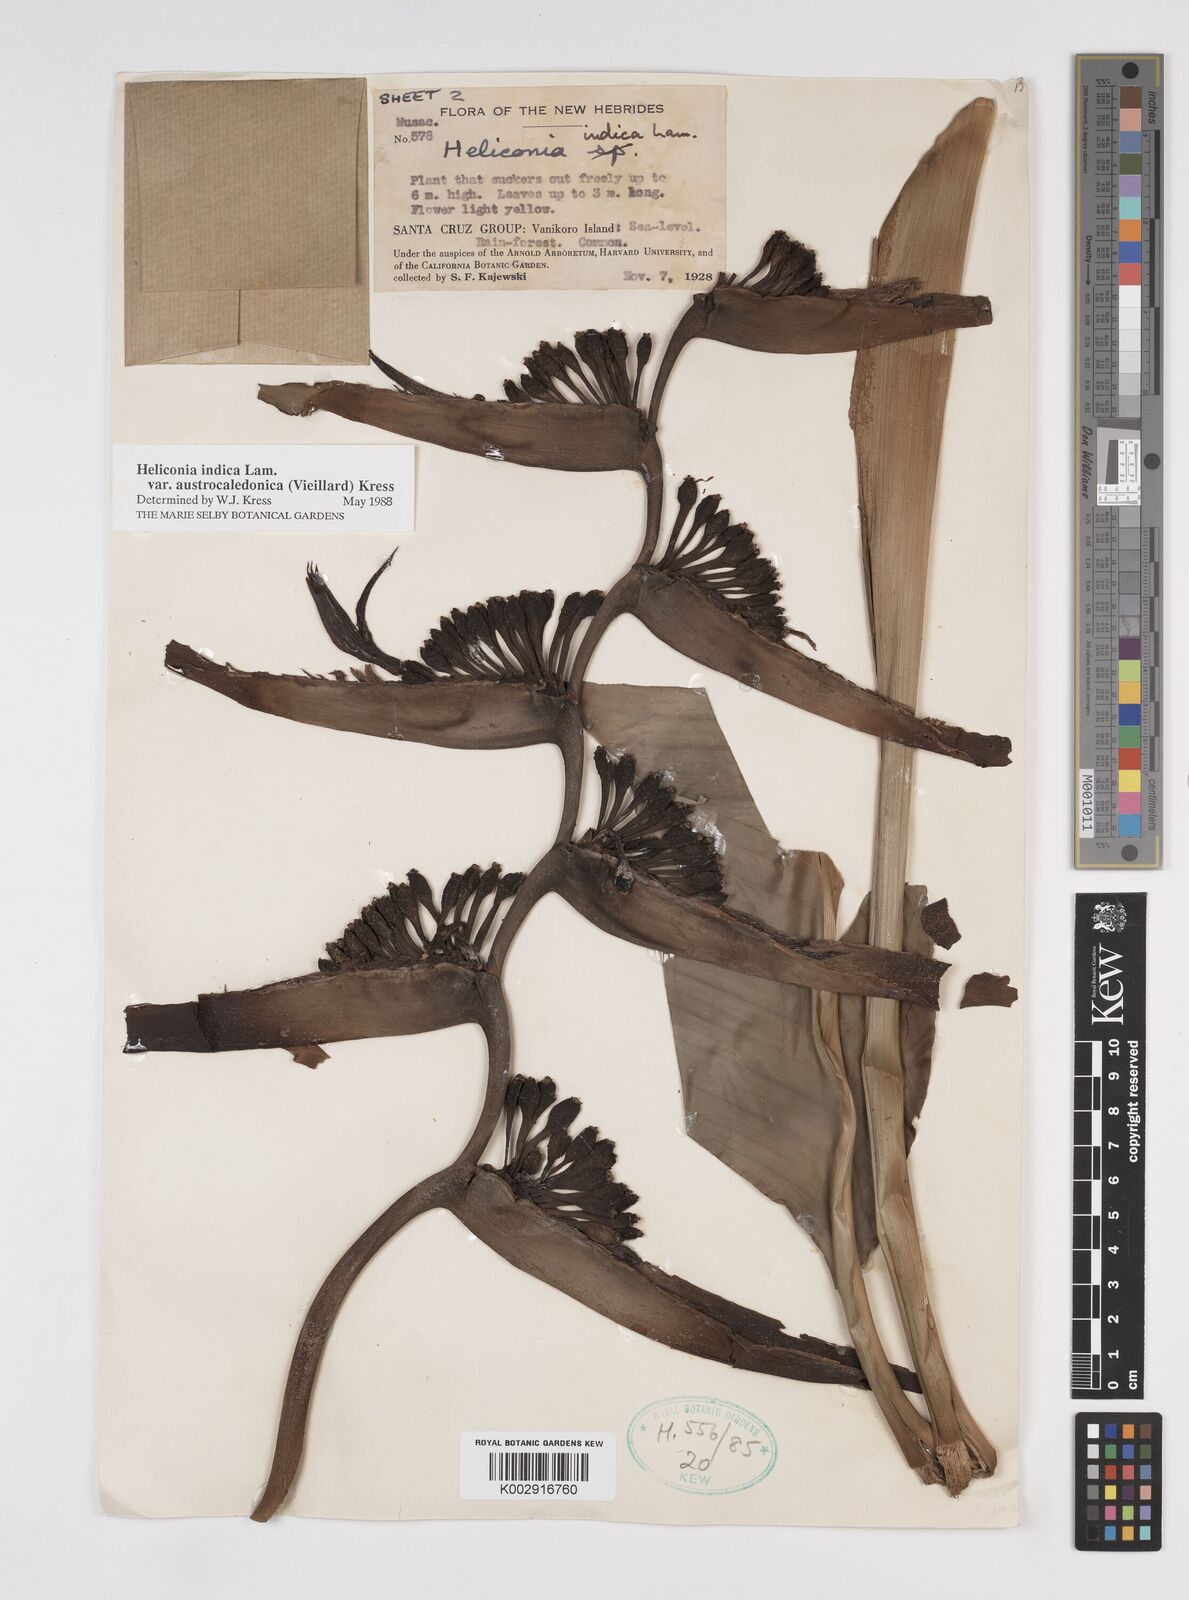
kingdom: Plantae
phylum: Tracheophyta
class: Liliopsida
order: Zingiberales
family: Heliconiaceae
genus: Heliconia
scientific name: Heliconia indica
